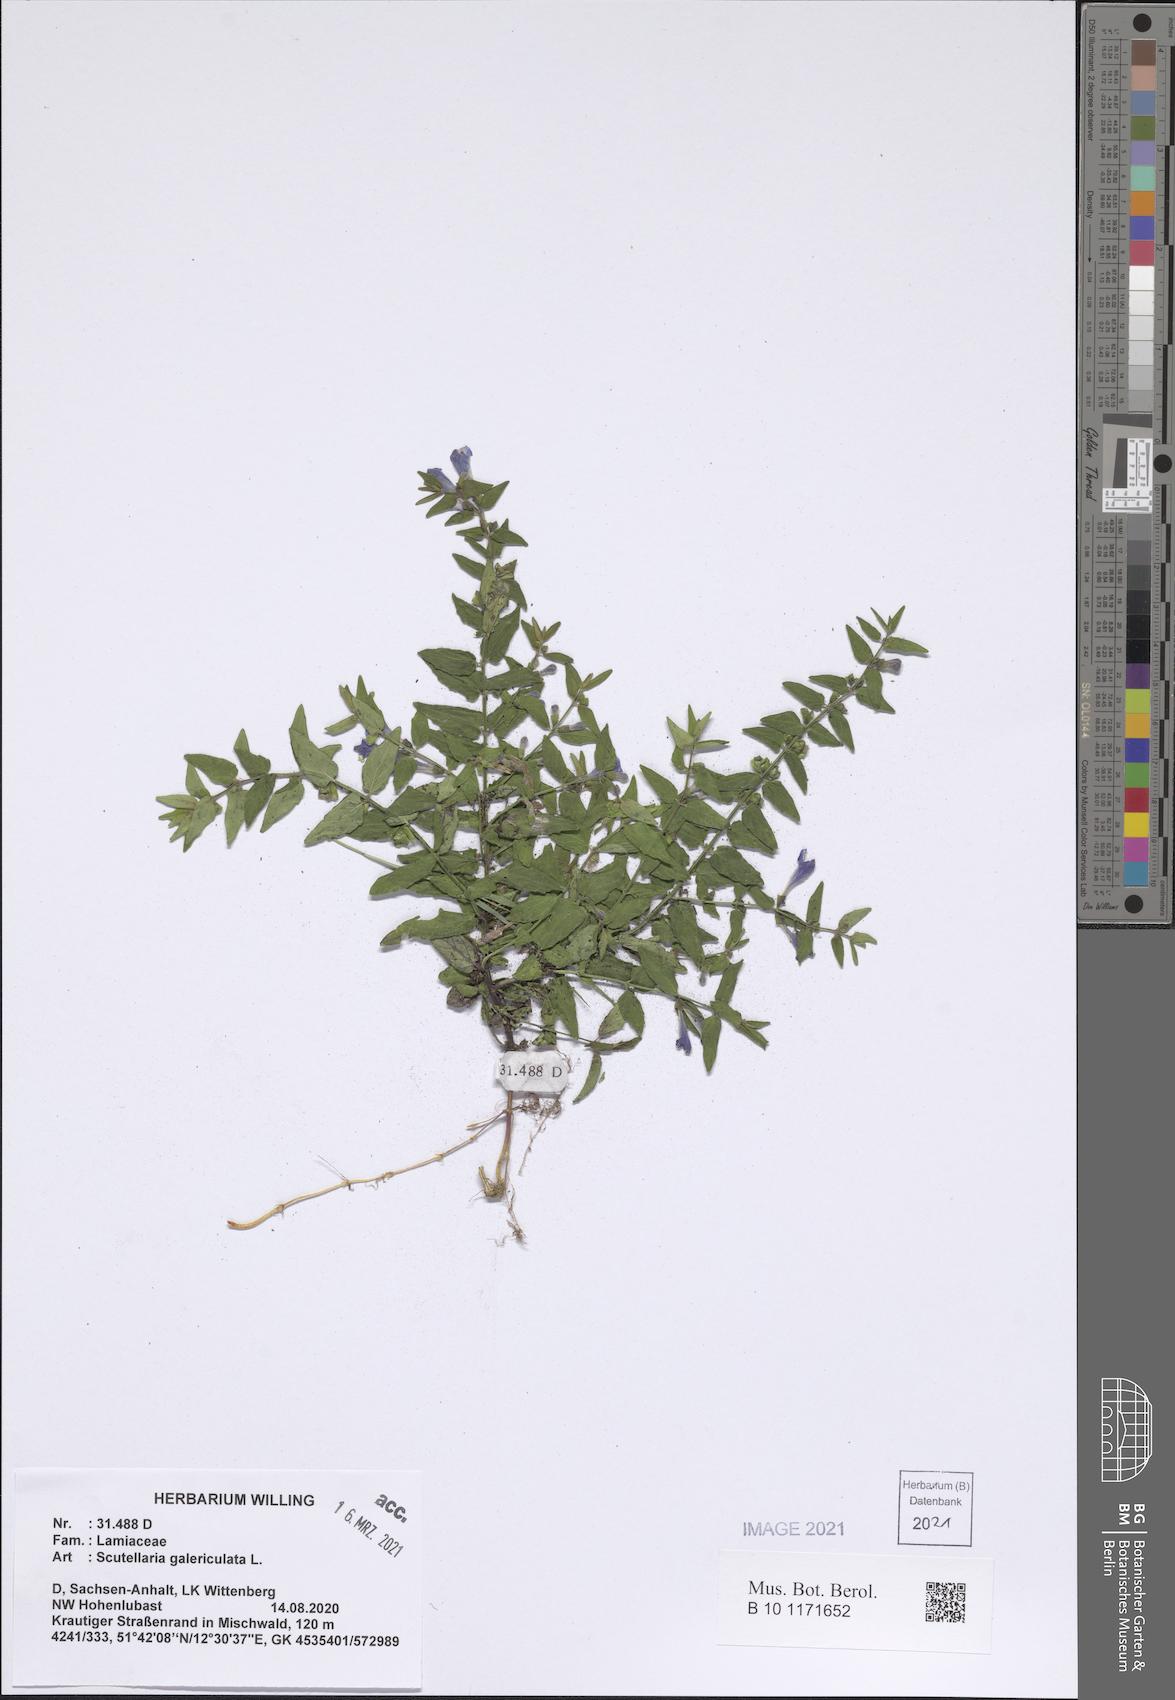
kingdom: Plantae
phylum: Tracheophyta
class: Magnoliopsida
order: Lamiales
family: Lamiaceae
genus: Scutellaria
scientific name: Scutellaria galericulata
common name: Skullcap
